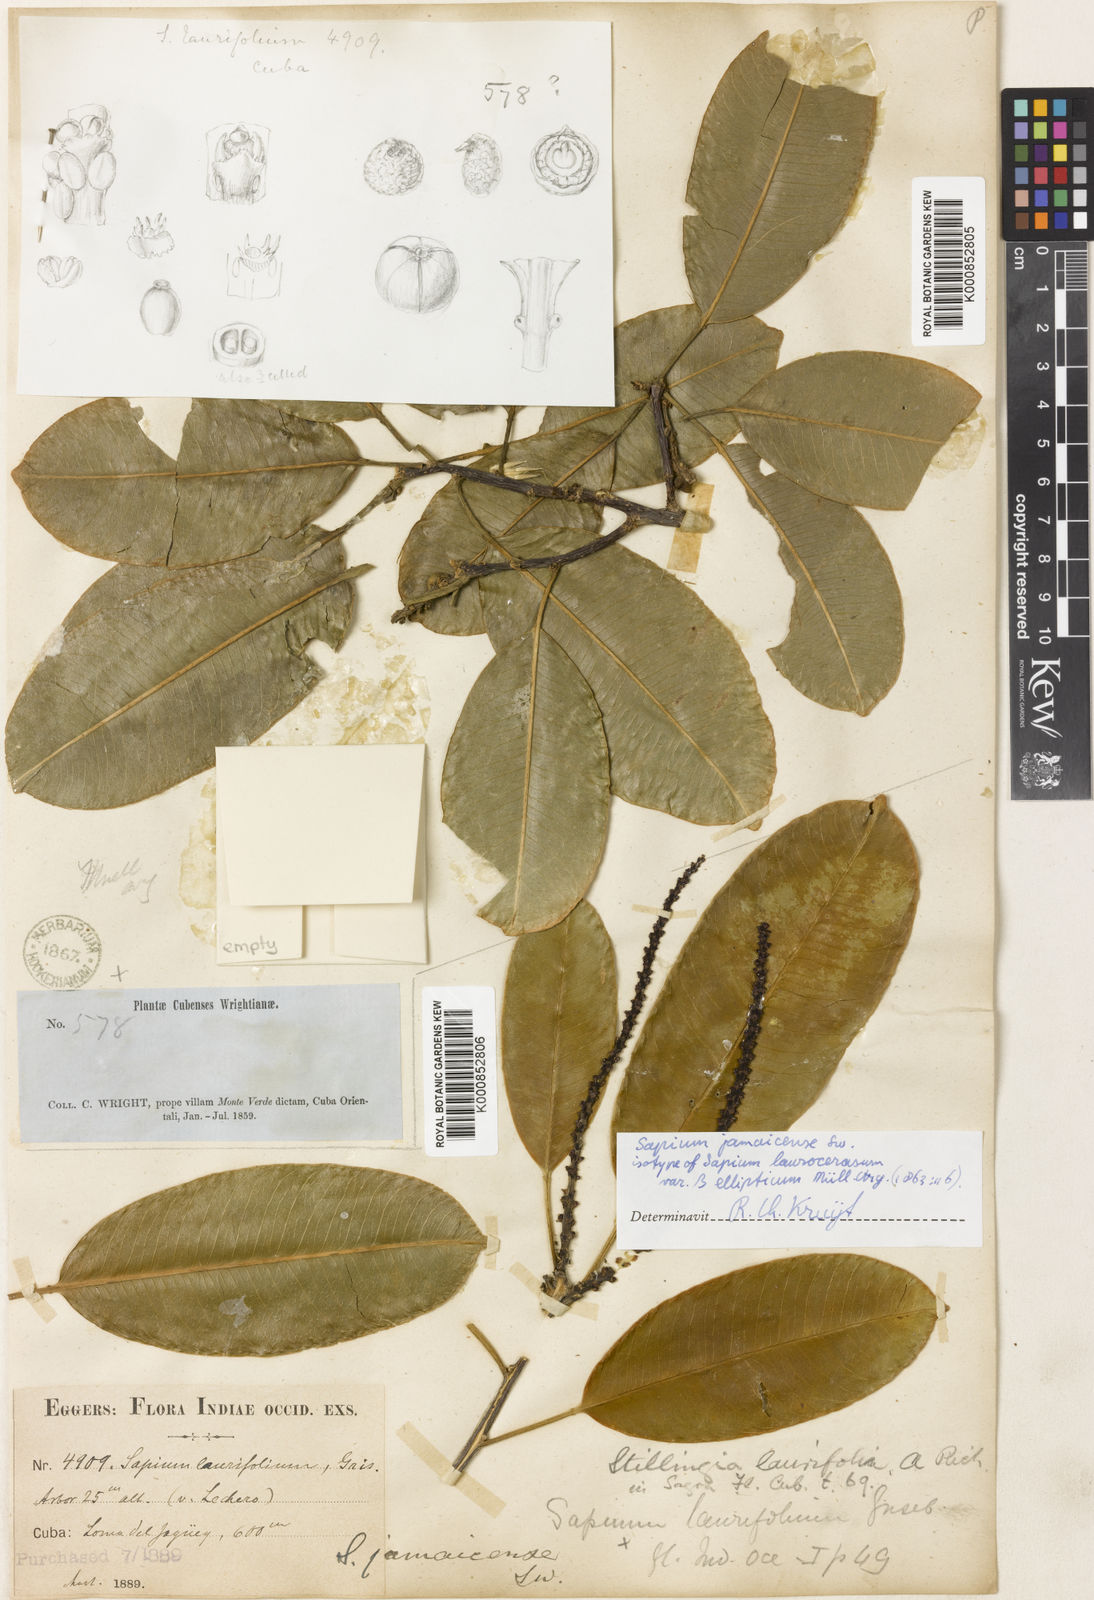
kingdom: Plantae
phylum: Tracheophyta
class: Magnoliopsida
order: Malpighiales
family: Euphorbiaceae
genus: Sapium
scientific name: Sapium laurifolium
